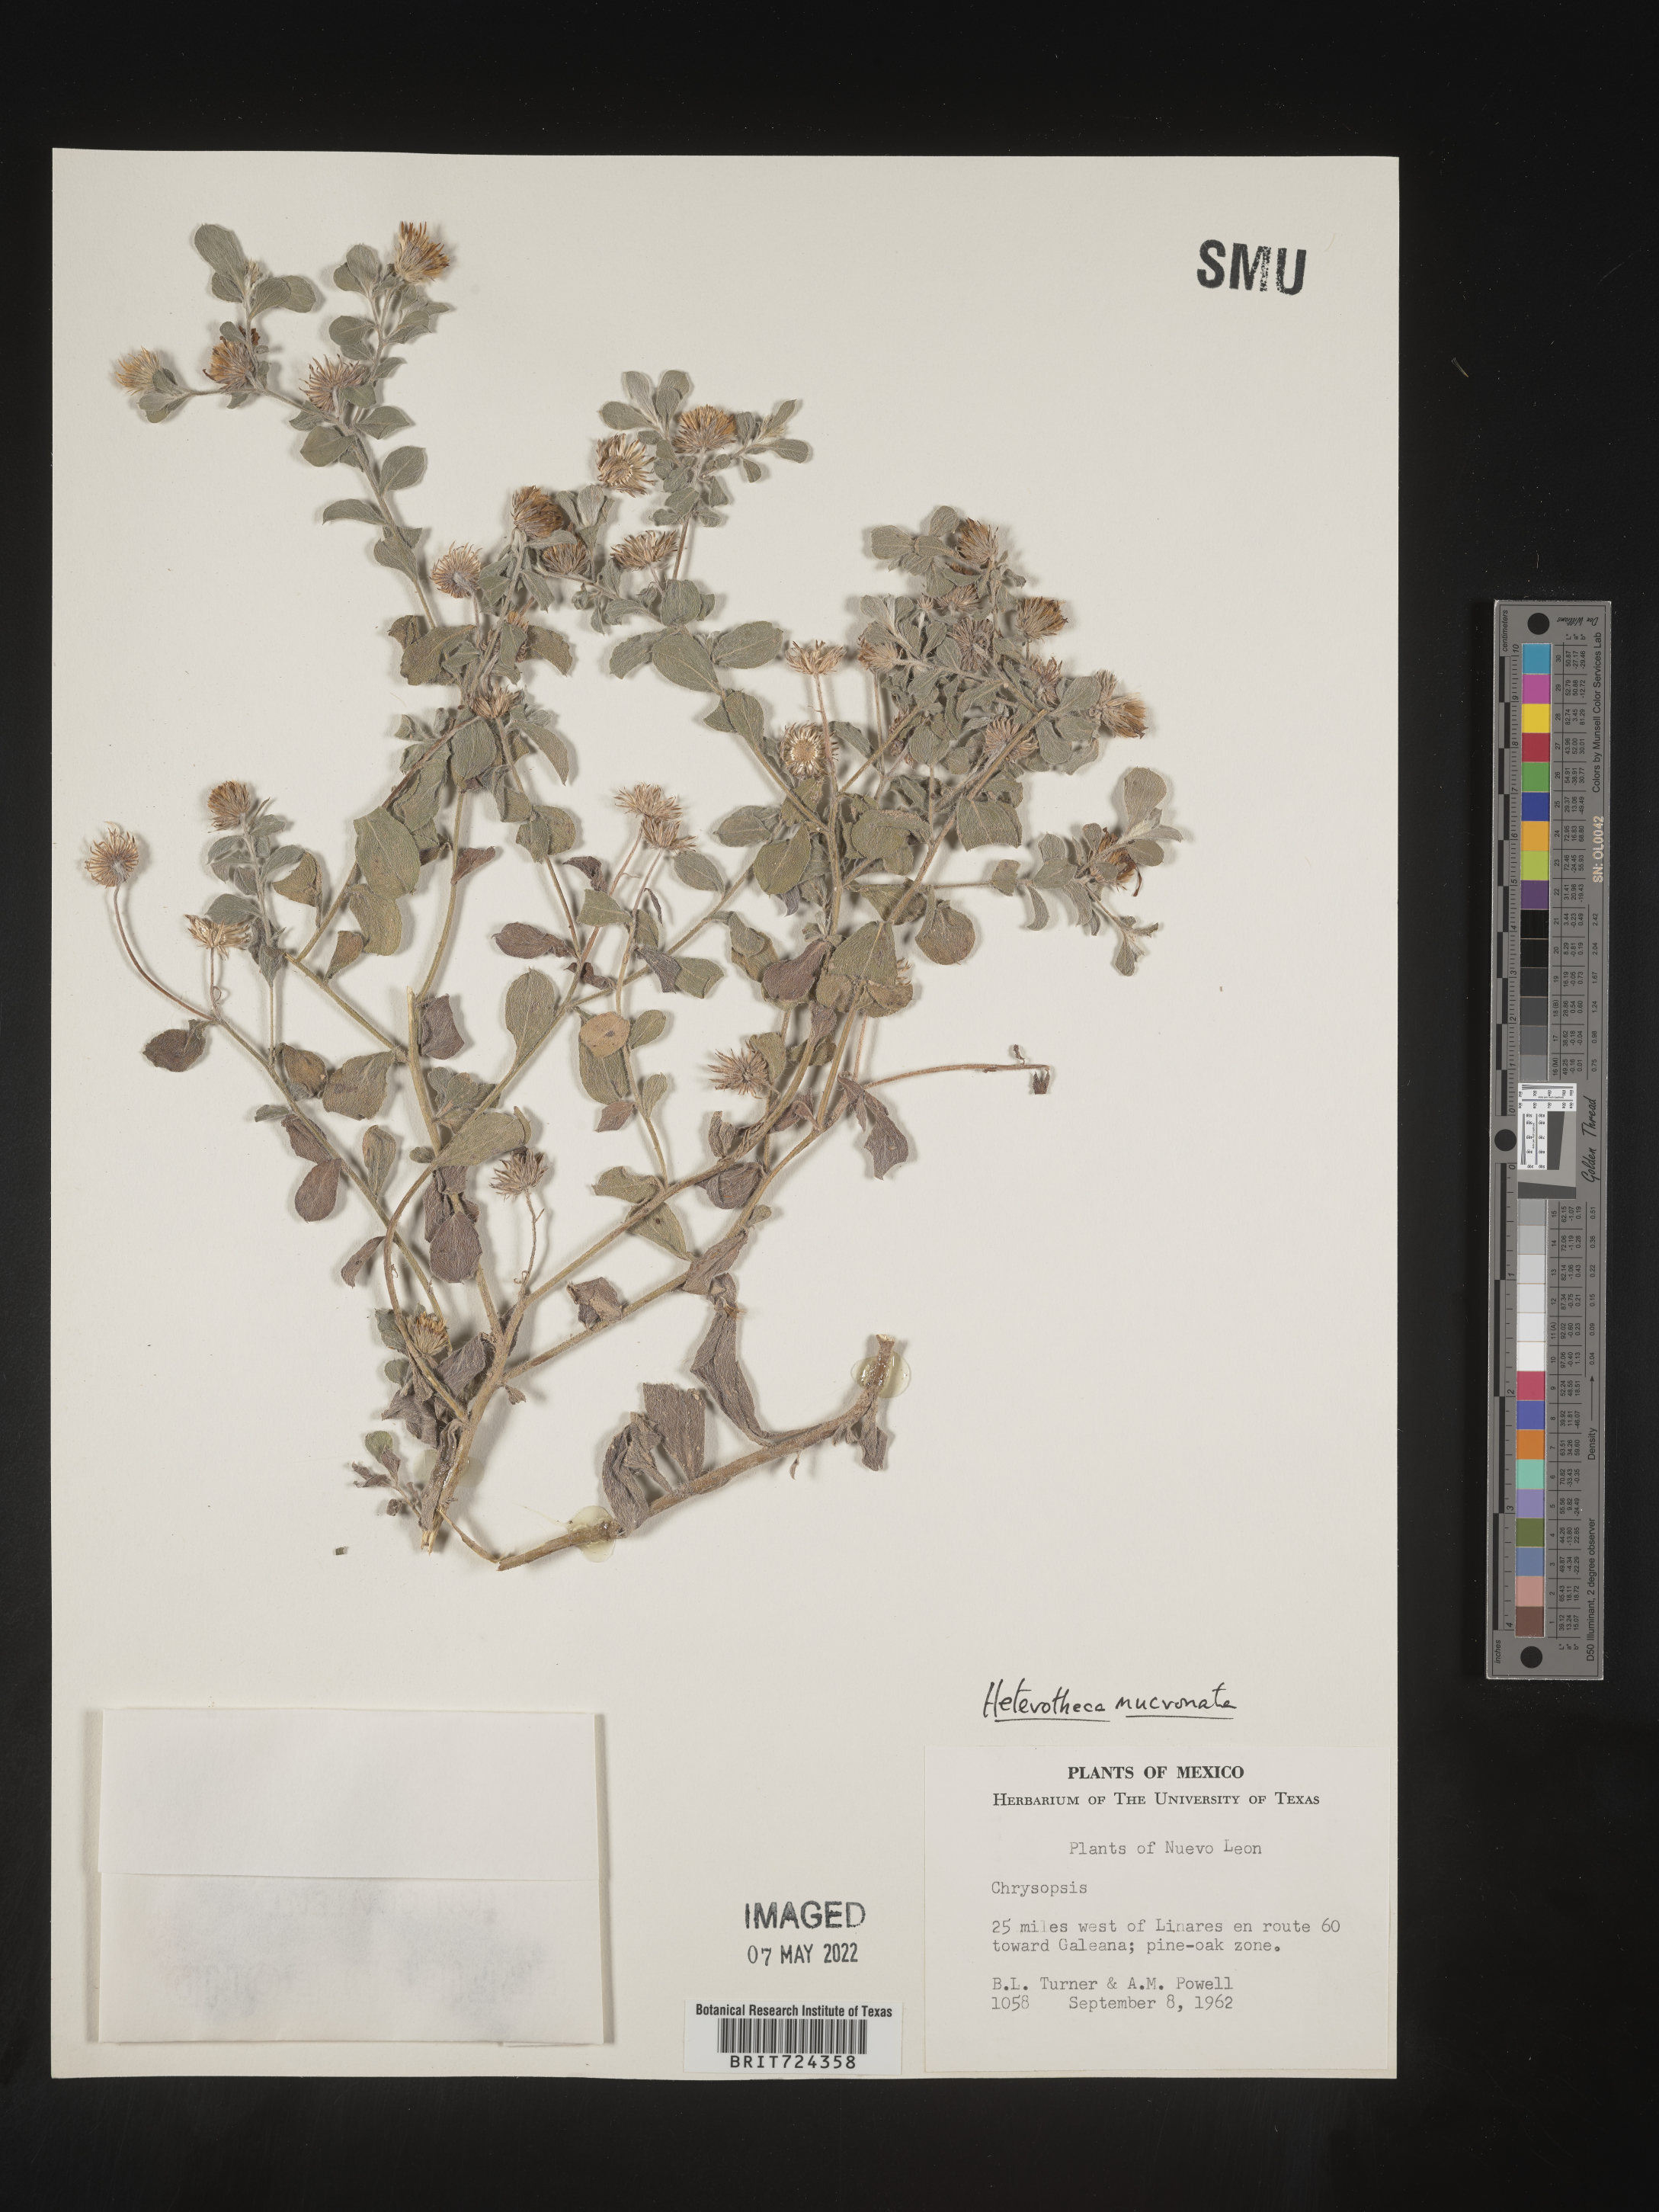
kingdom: Plantae
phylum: Tracheophyta
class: Magnoliopsida
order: Asterales
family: Asteraceae
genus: Heterotheca
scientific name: Heterotheca
